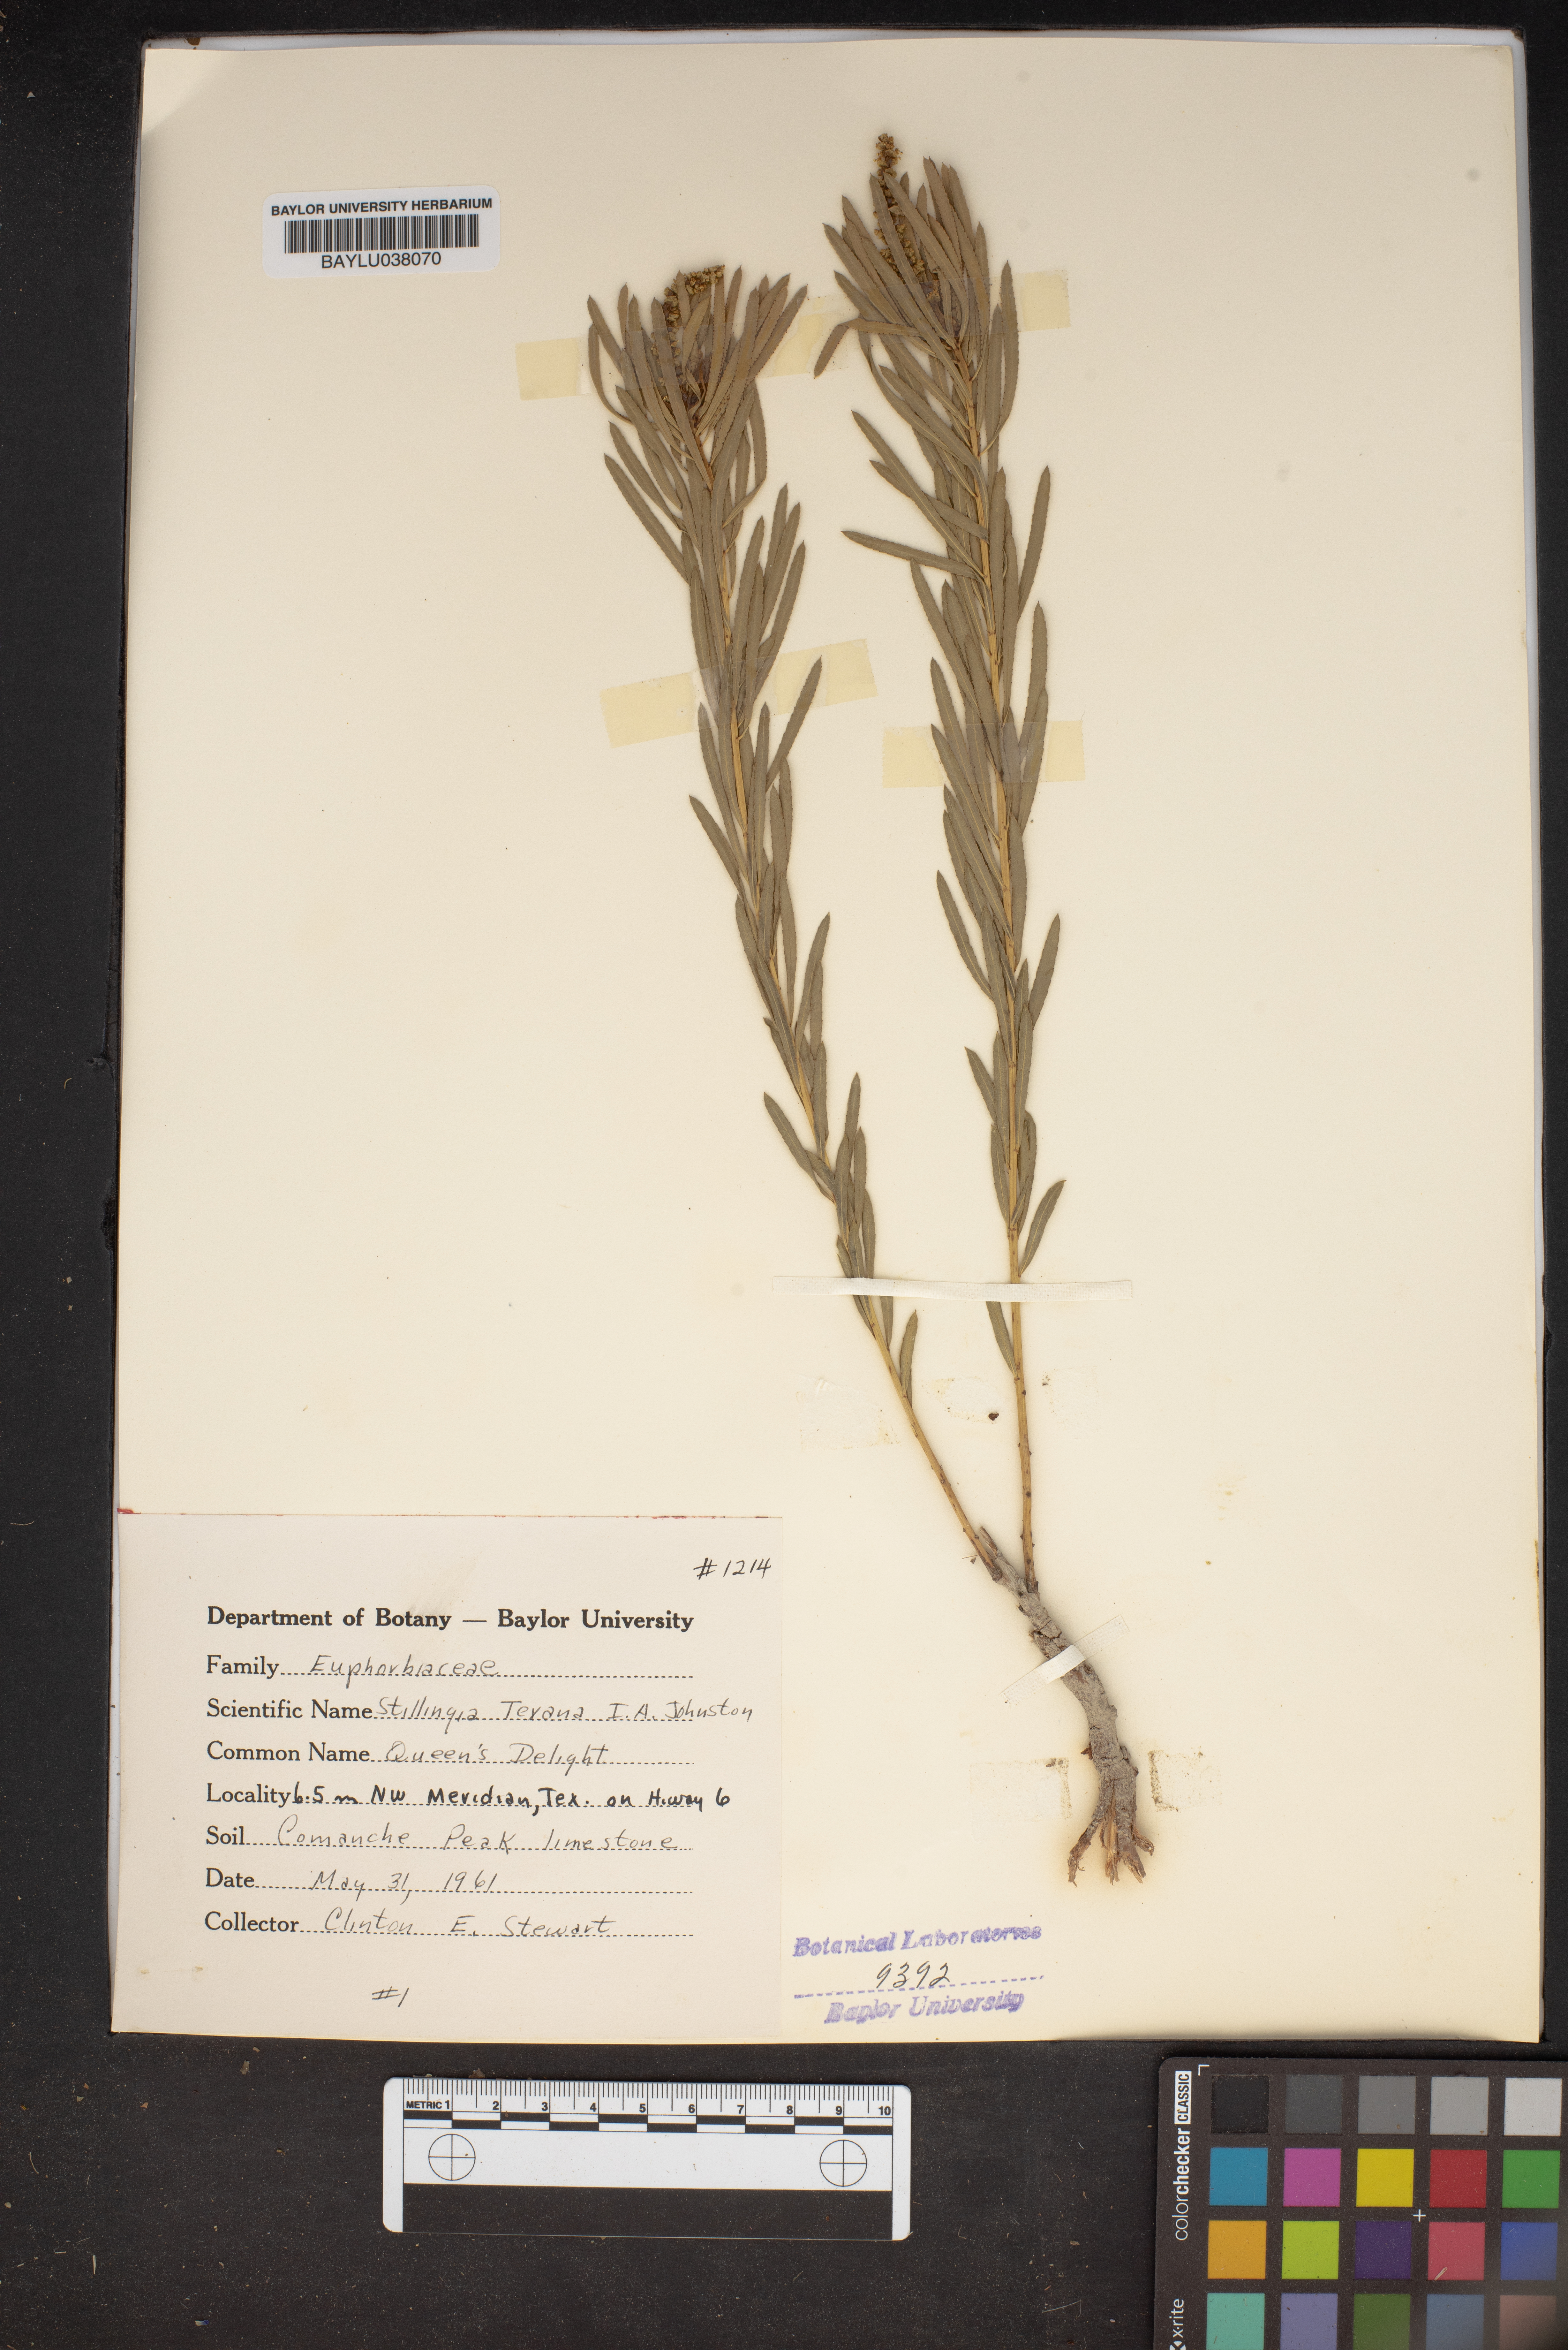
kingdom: Plantae
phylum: Tracheophyta
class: Magnoliopsida
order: Malpighiales
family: Euphorbiaceae
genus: Stillingia
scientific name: Stillingia texana
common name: Texas stillingia
